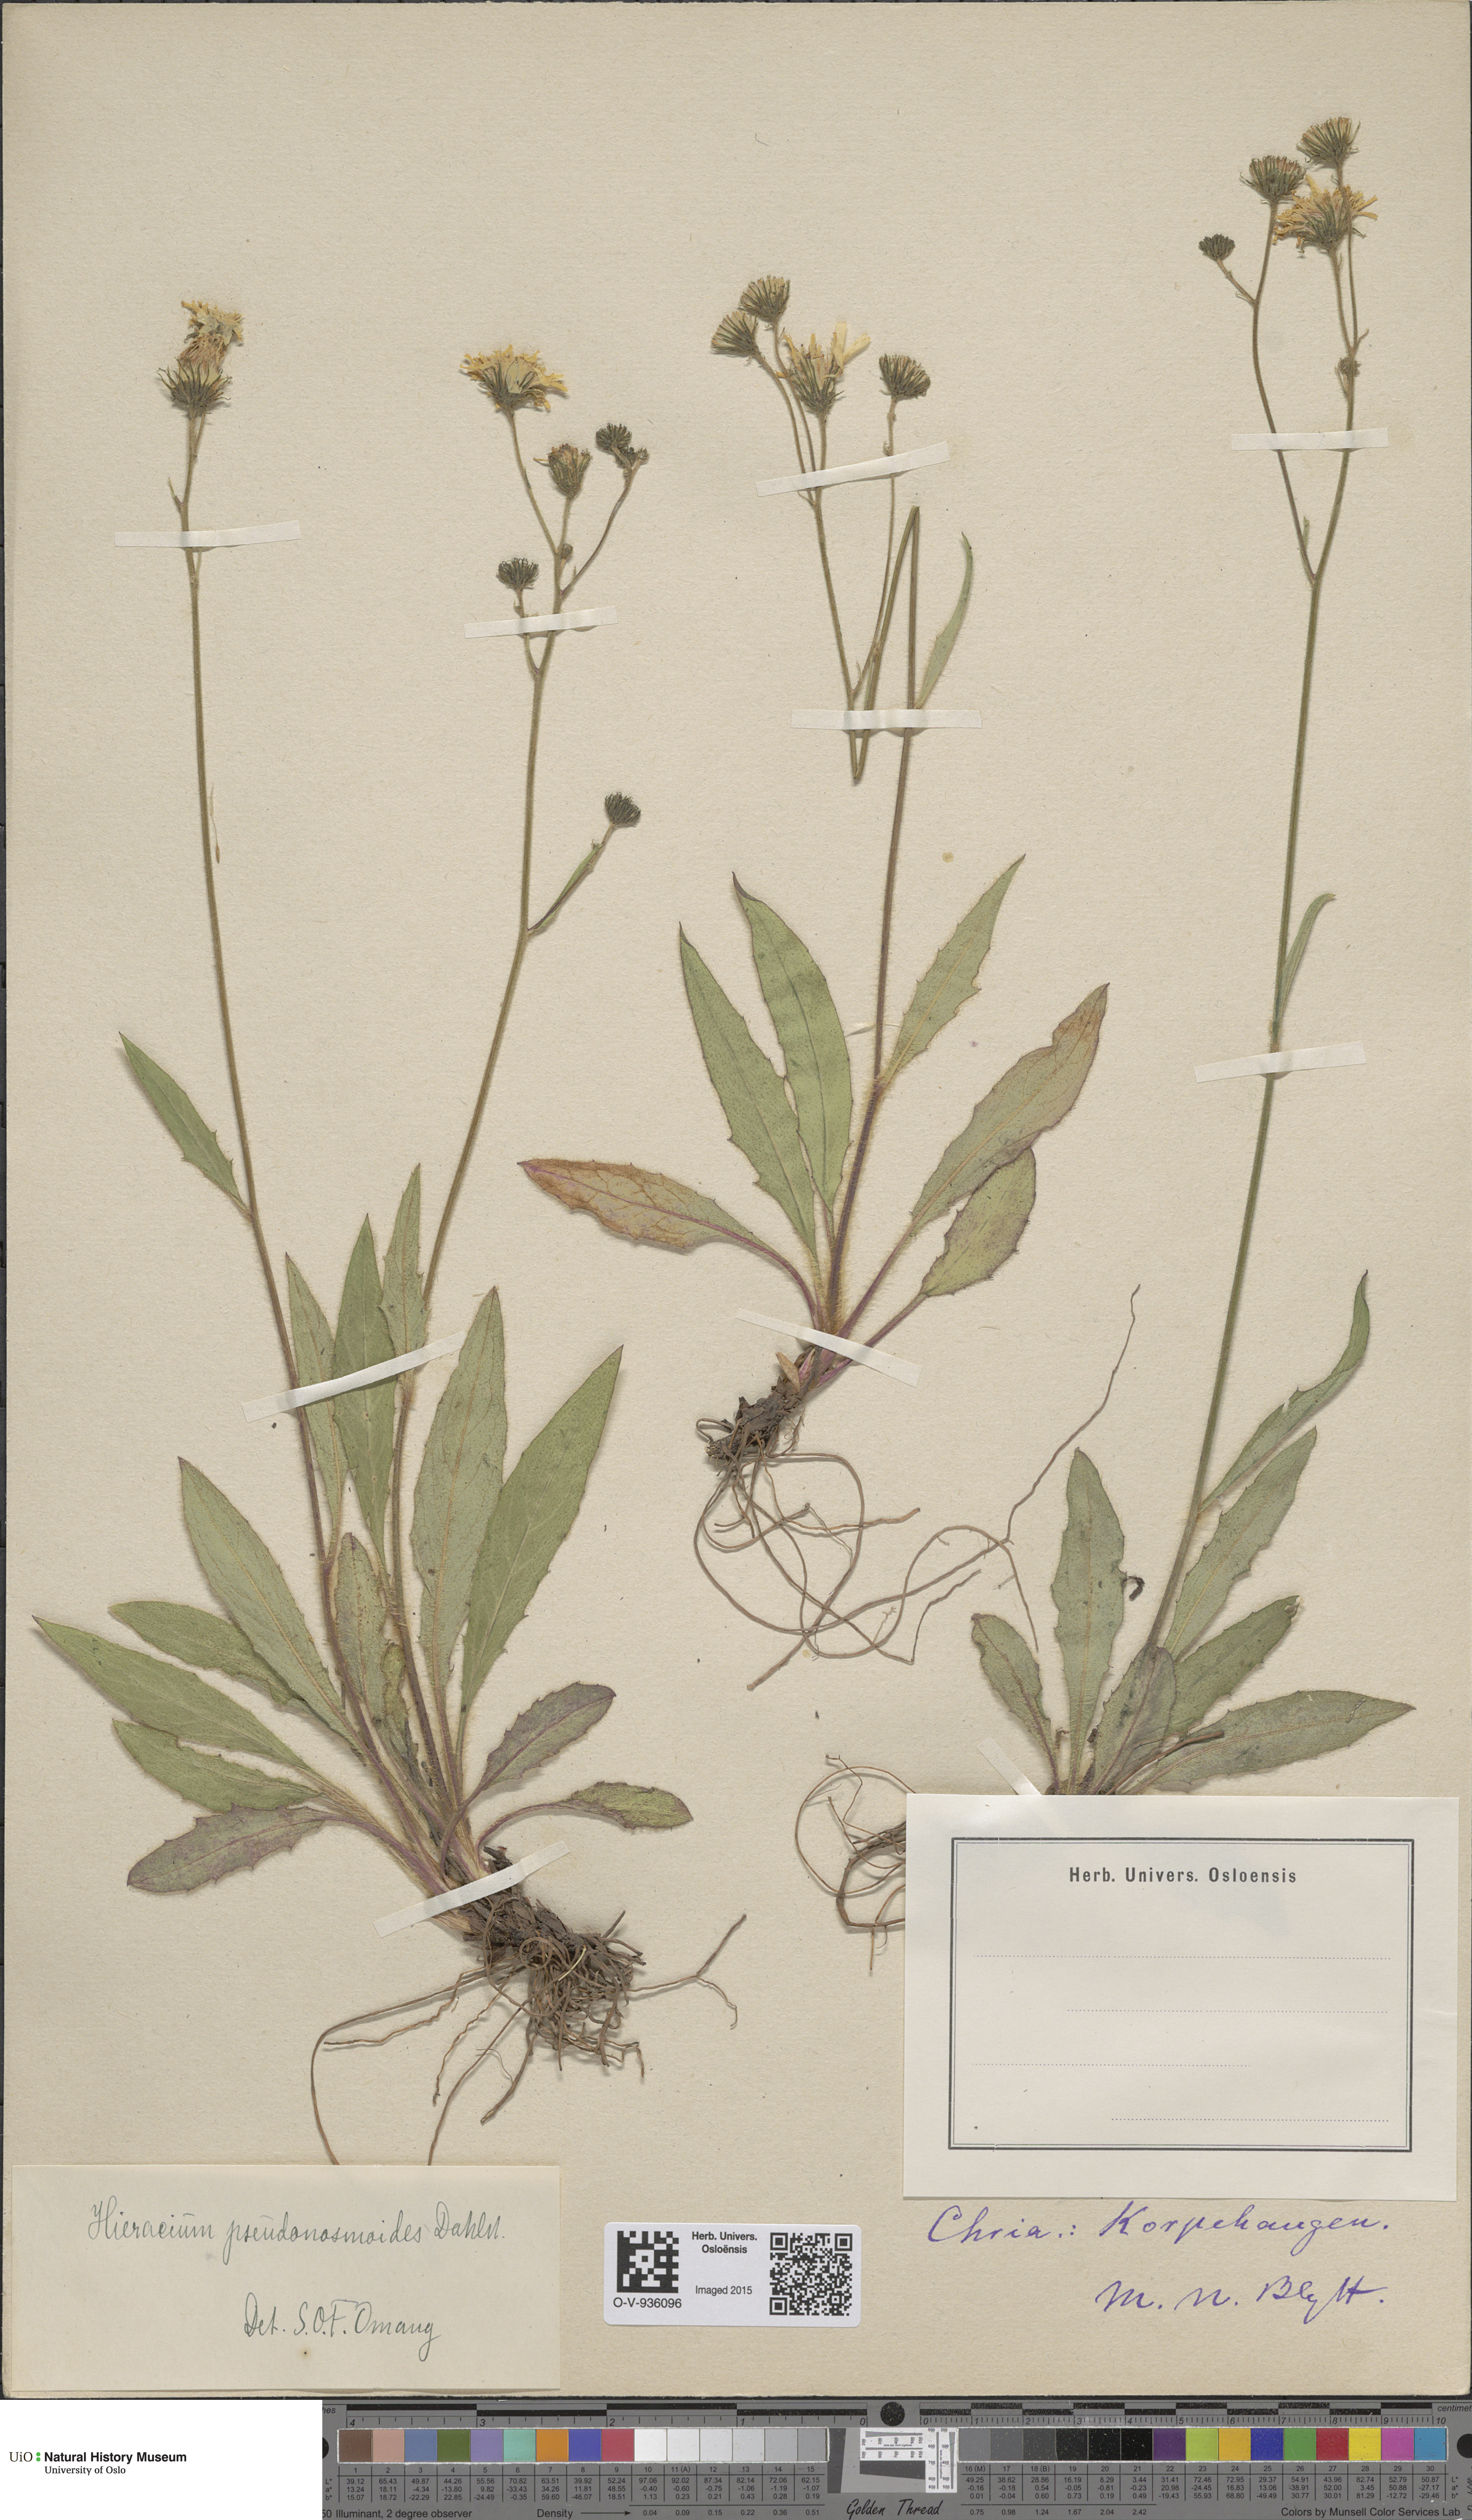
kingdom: Plantae
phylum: Tracheophyta
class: Magnoliopsida
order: Asterales
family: Asteraceae
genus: Hieracium
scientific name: Hieracium saxifragum
